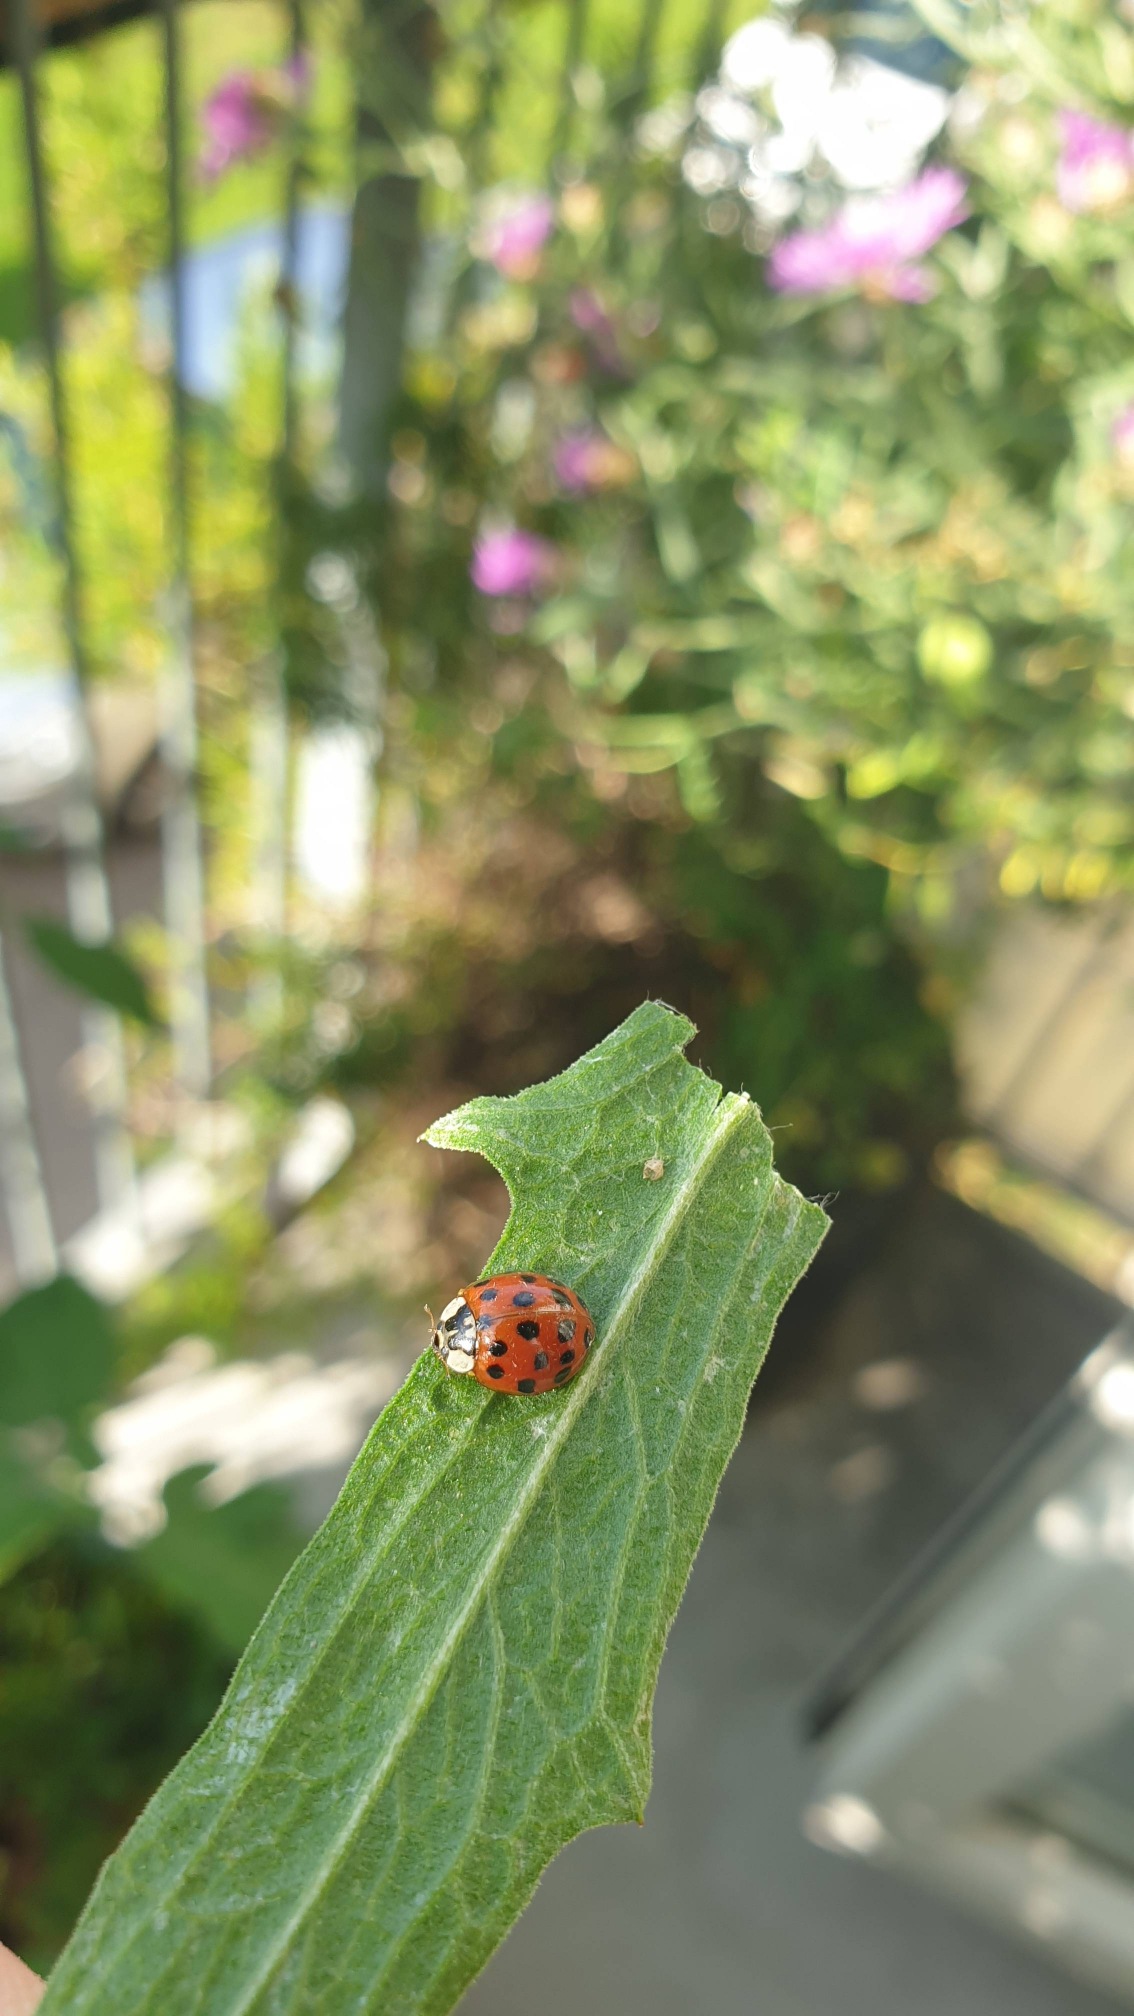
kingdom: Animalia
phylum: Arthropoda
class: Insecta
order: Coleoptera
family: Coccinellidae
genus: Harmonia
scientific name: Harmonia axyridis
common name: Harlekinmariehøne
